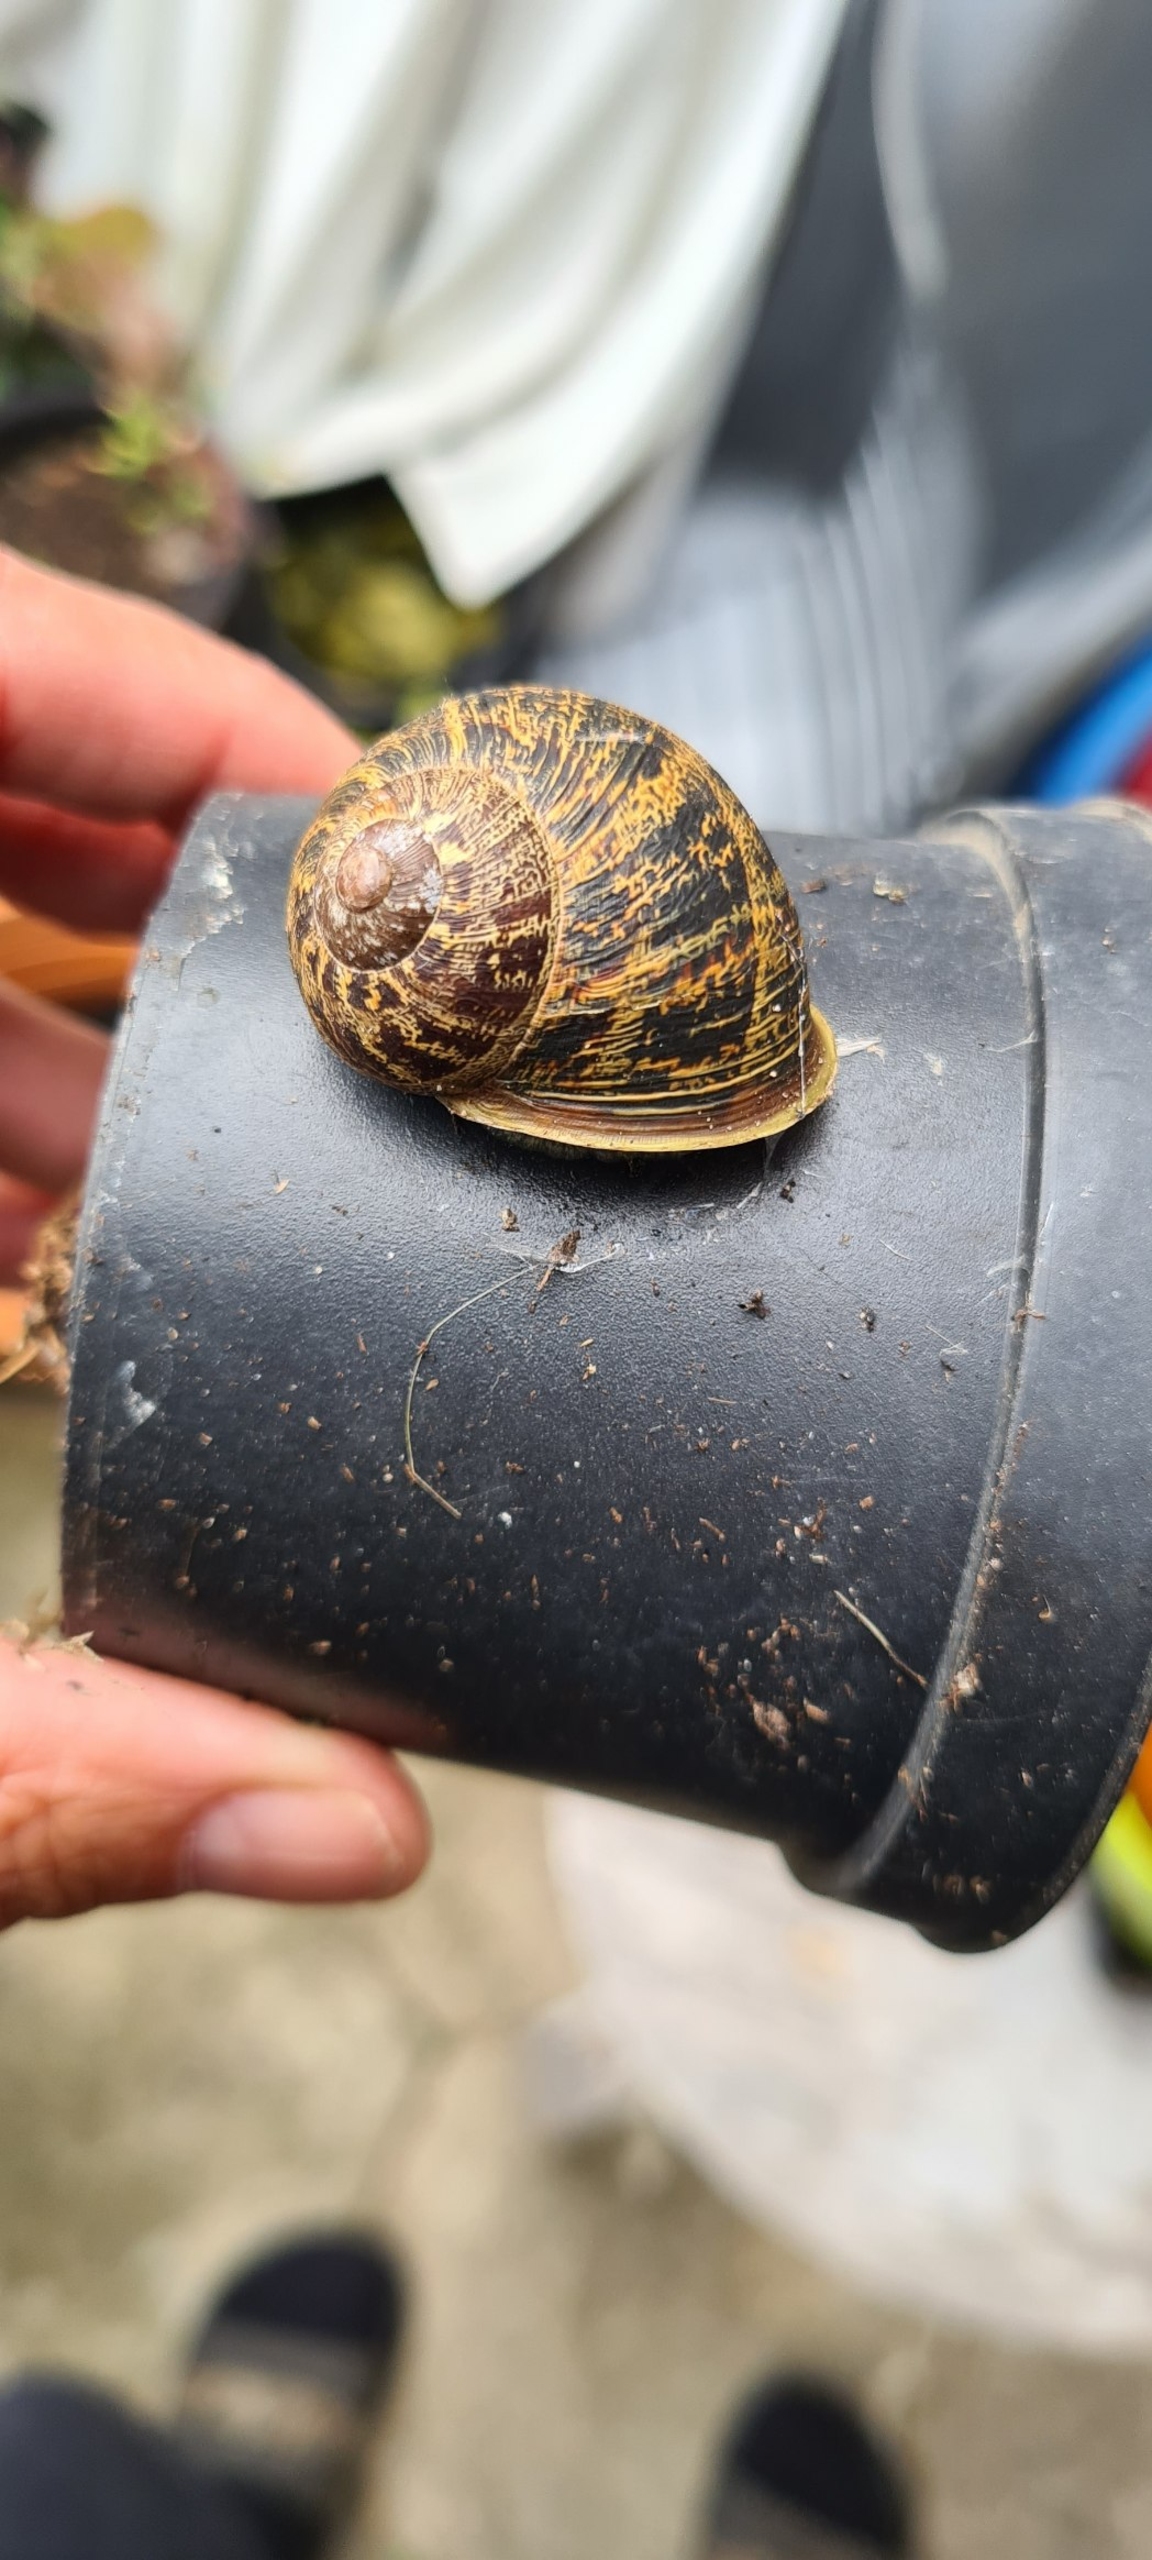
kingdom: Animalia
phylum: Mollusca
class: Gastropoda
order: Stylommatophora
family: Helicidae
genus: Cornu
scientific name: Cornu aspersum
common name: Plettet voldsnegl
